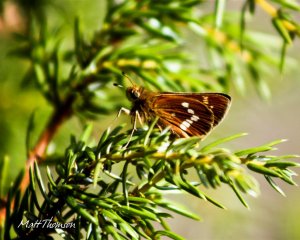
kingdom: Animalia
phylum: Arthropoda
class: Insecta
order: Lepidoptera
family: Hesperiidae
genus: Hesperia
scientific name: Hesperia leonardus
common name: Leonard's Skipper
